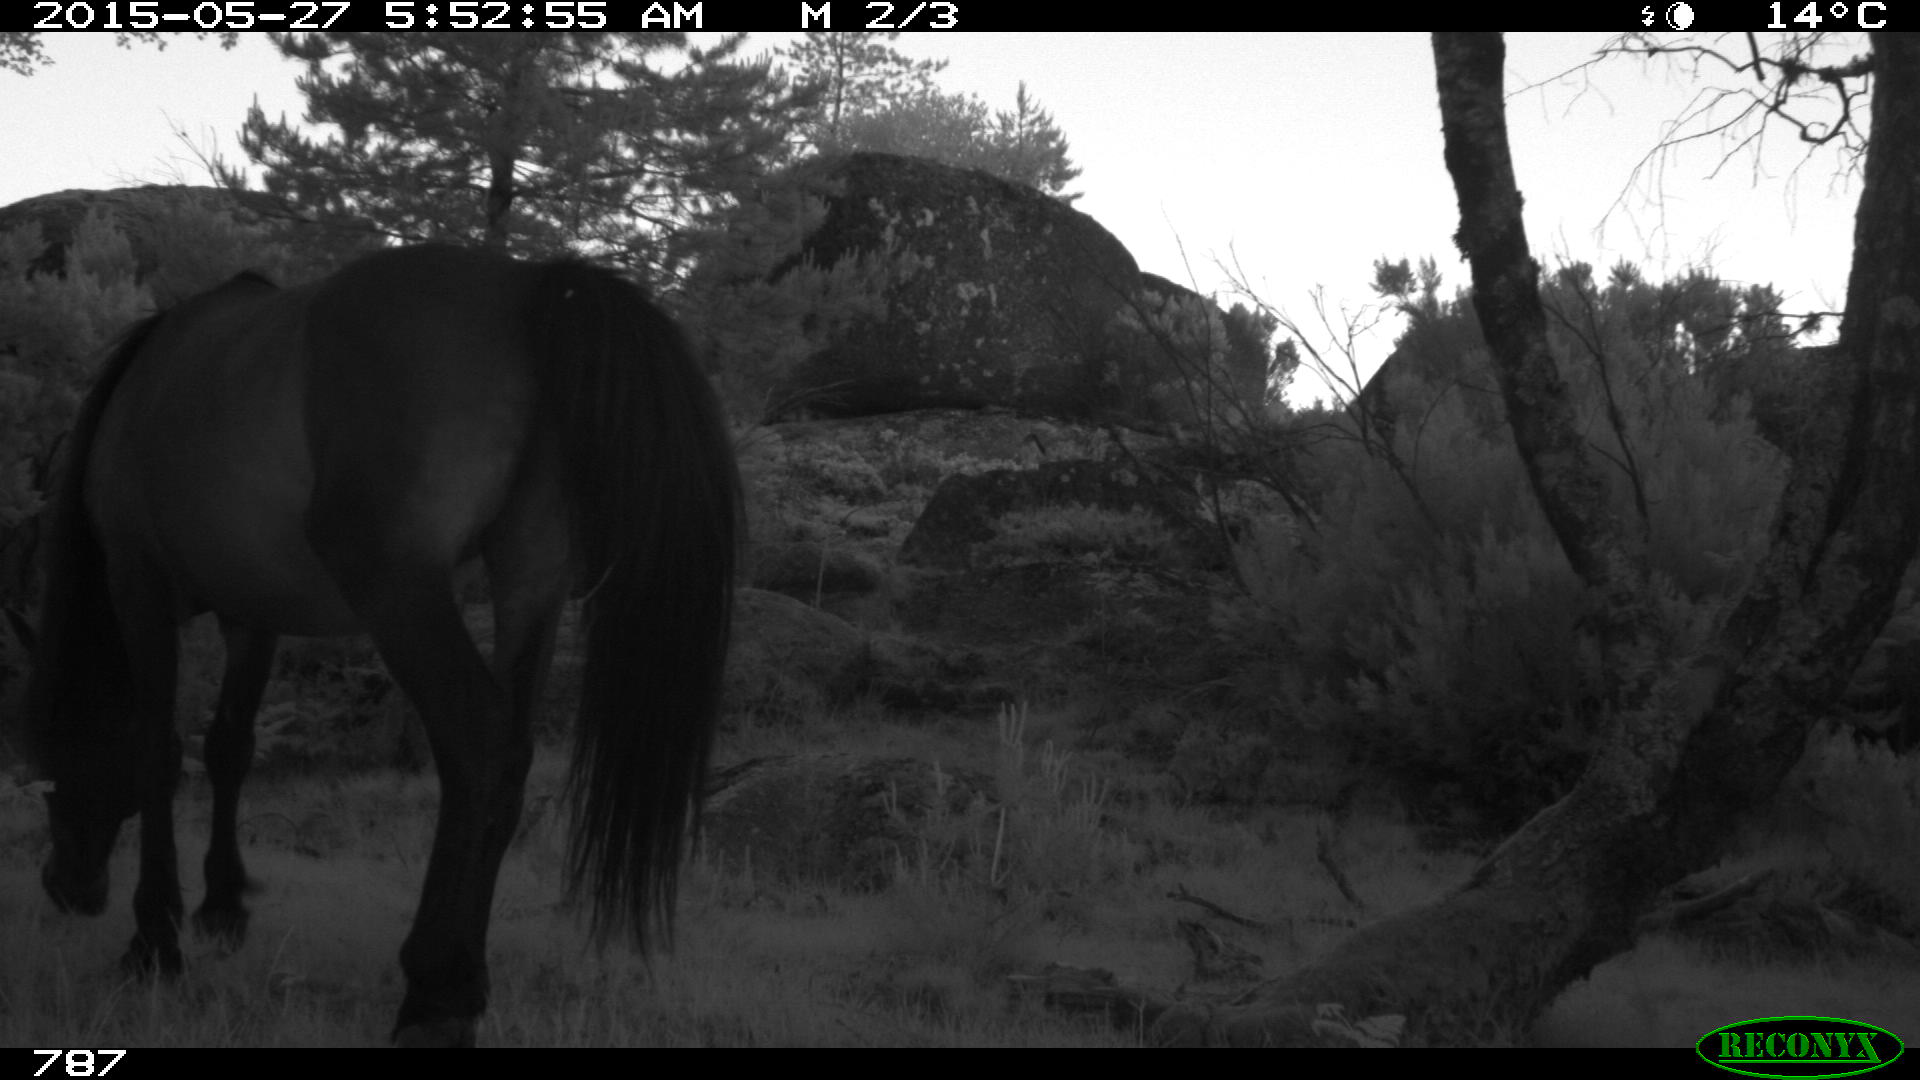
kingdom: Animalia
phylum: Chordata
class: Mammalia
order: Perissodactyla
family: Equidae
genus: Equus
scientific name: Equus caballus
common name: Horse
